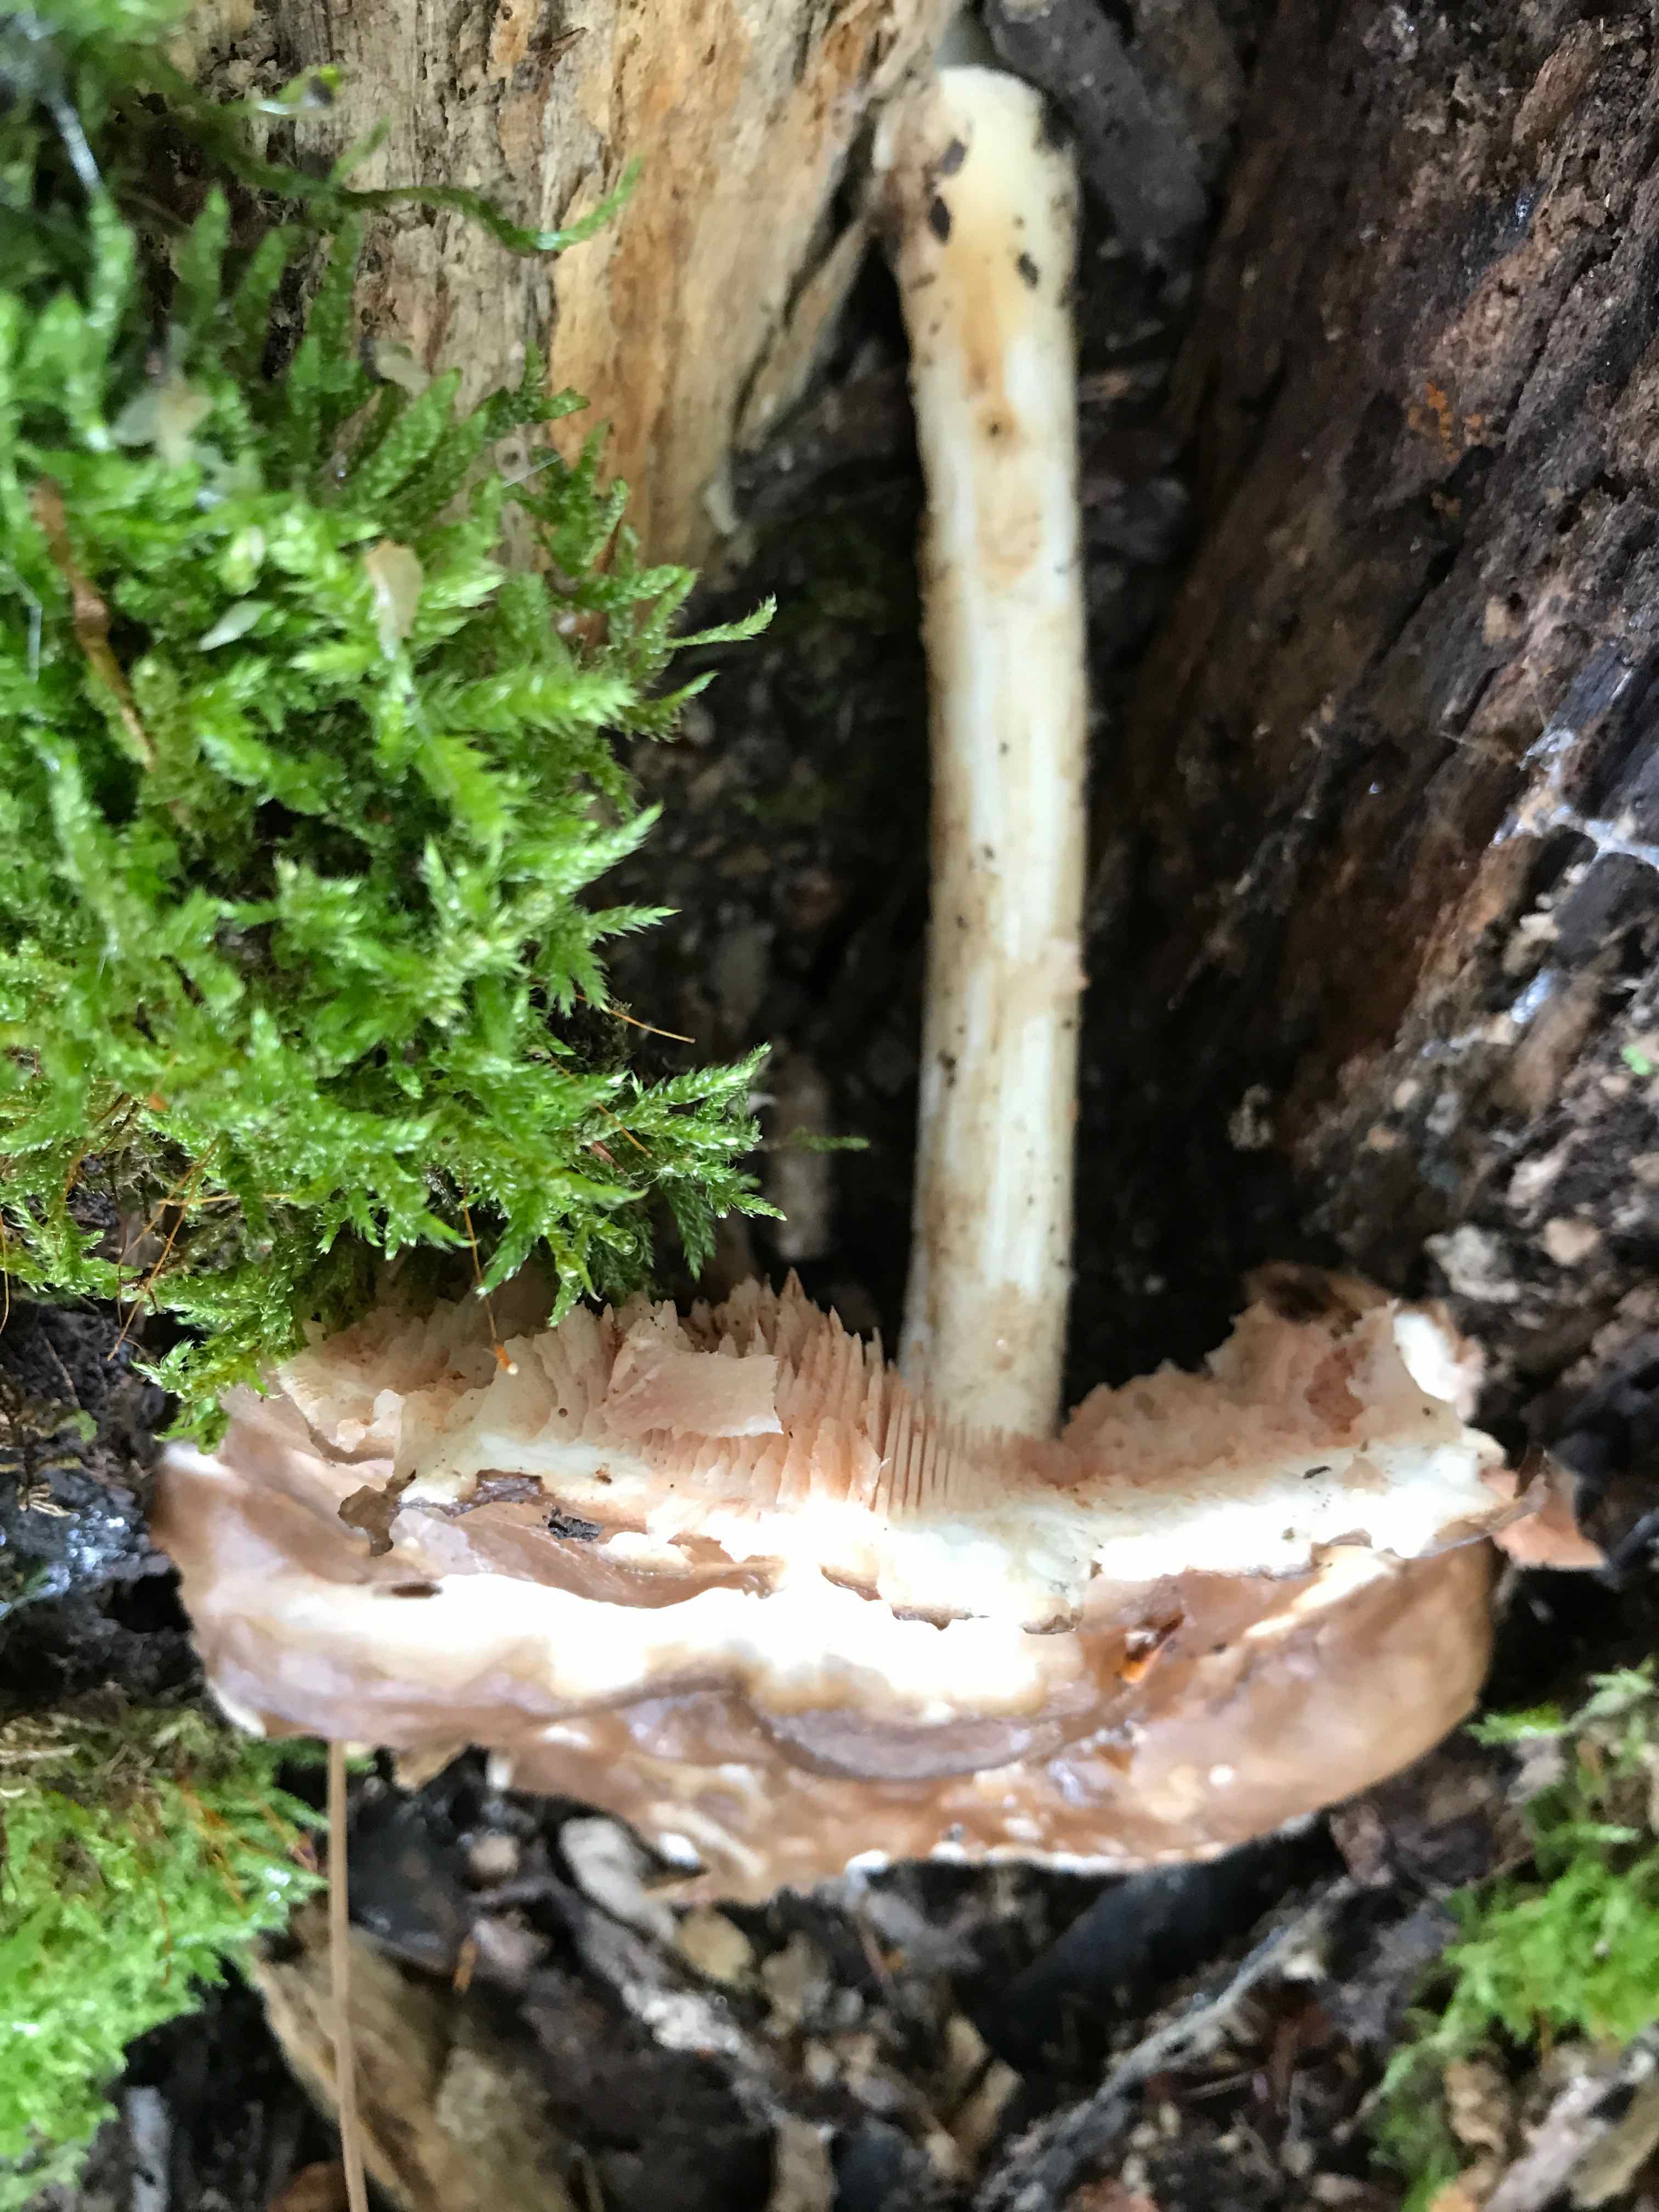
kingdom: Fungi
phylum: Basidiomycota
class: Agaricomycetes
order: Agaricales
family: Pluteaceae
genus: Pluteus
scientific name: Pluteus cervinus
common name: sodfarvet skærmhat
